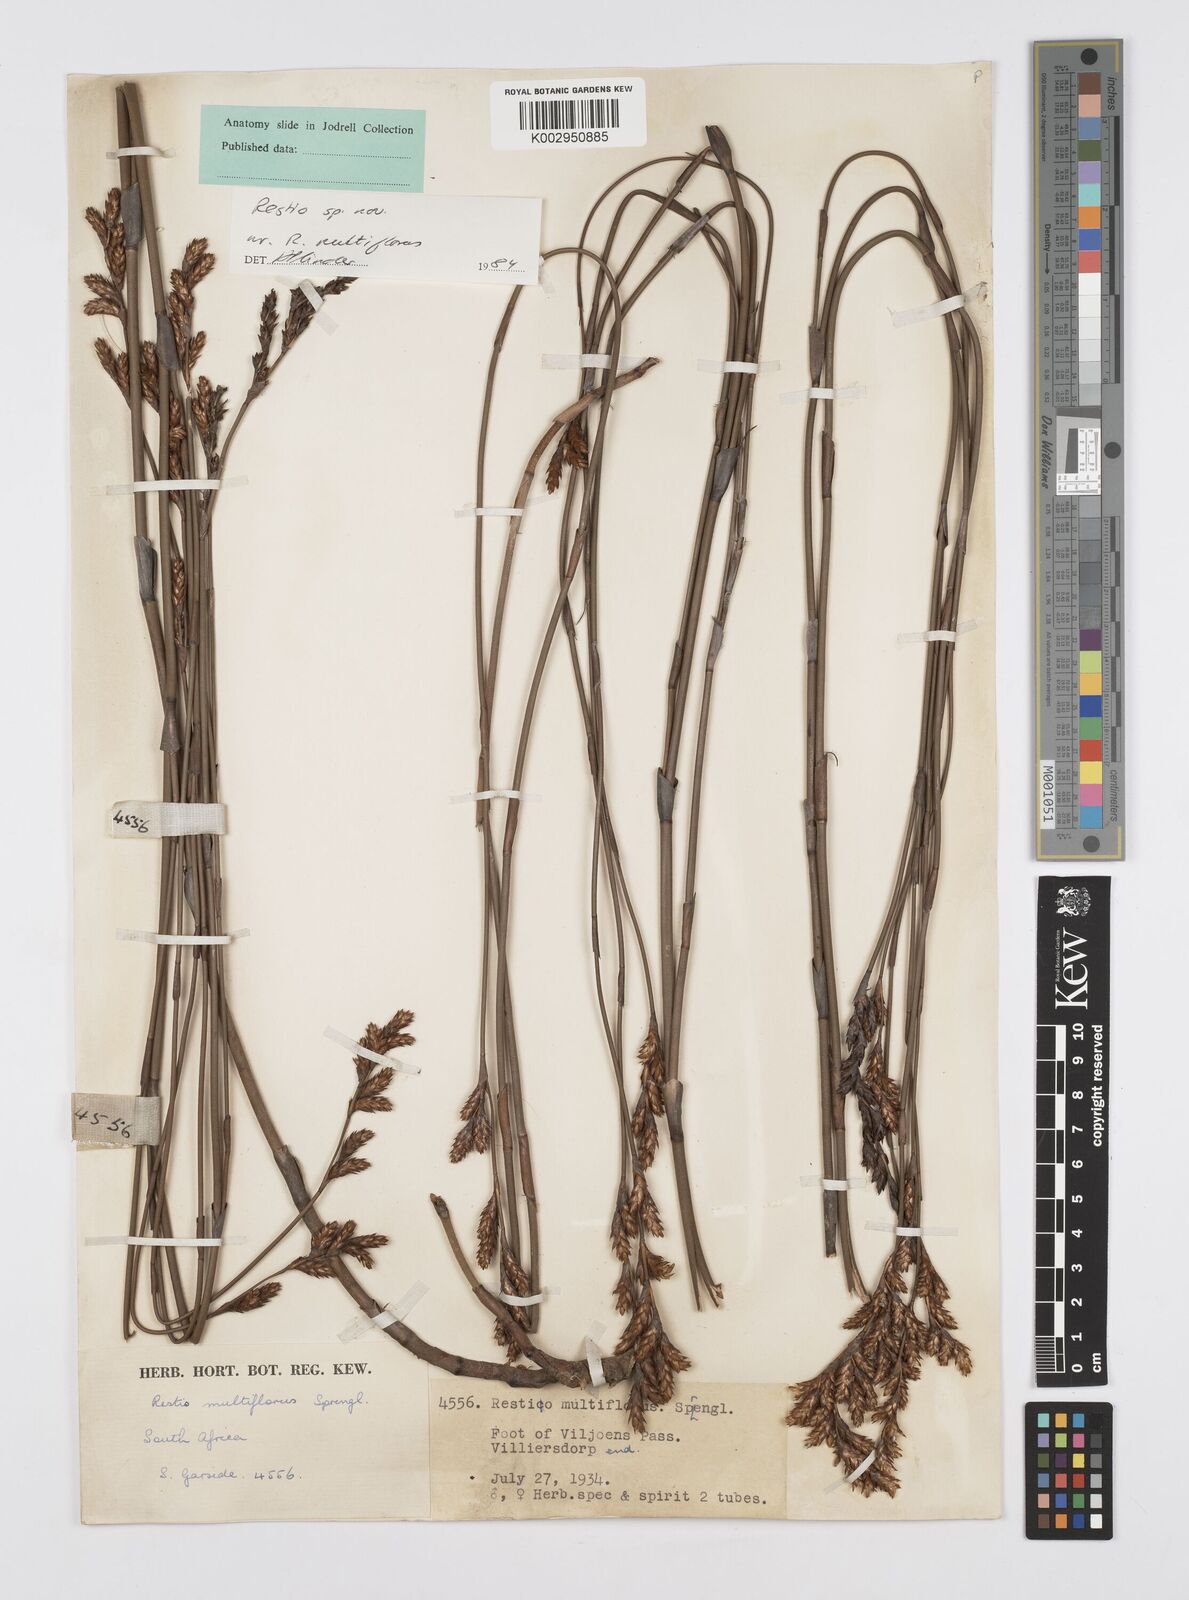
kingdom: Plantae
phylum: Tracheophyta
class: Liliopsida
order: Poales
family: Restionaceae
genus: Restio
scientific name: Restio degenerans
